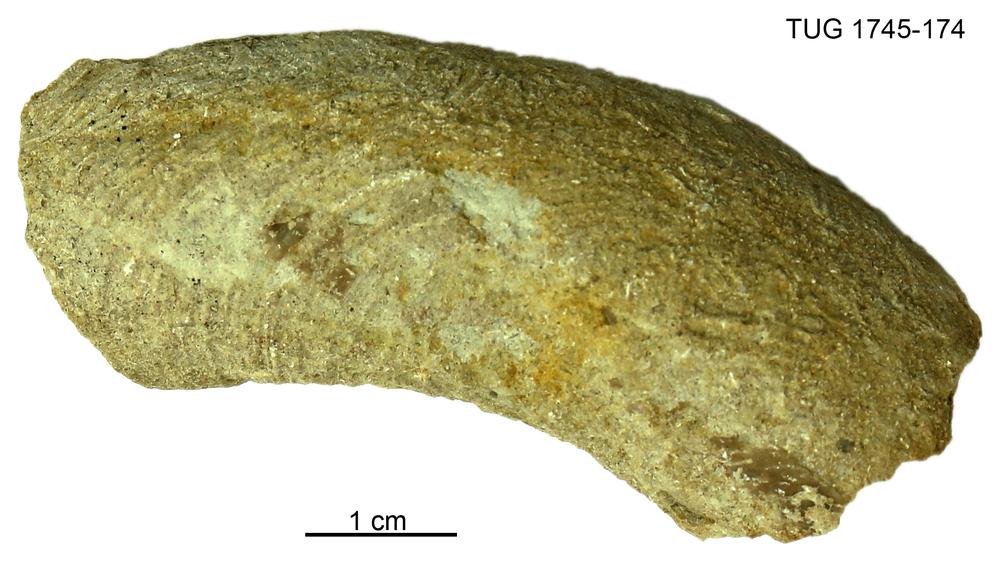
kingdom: Animalia
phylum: Mollusca
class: Cephalopoda
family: Trocholitidae
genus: Schroederoceras
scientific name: Schroederoceras
